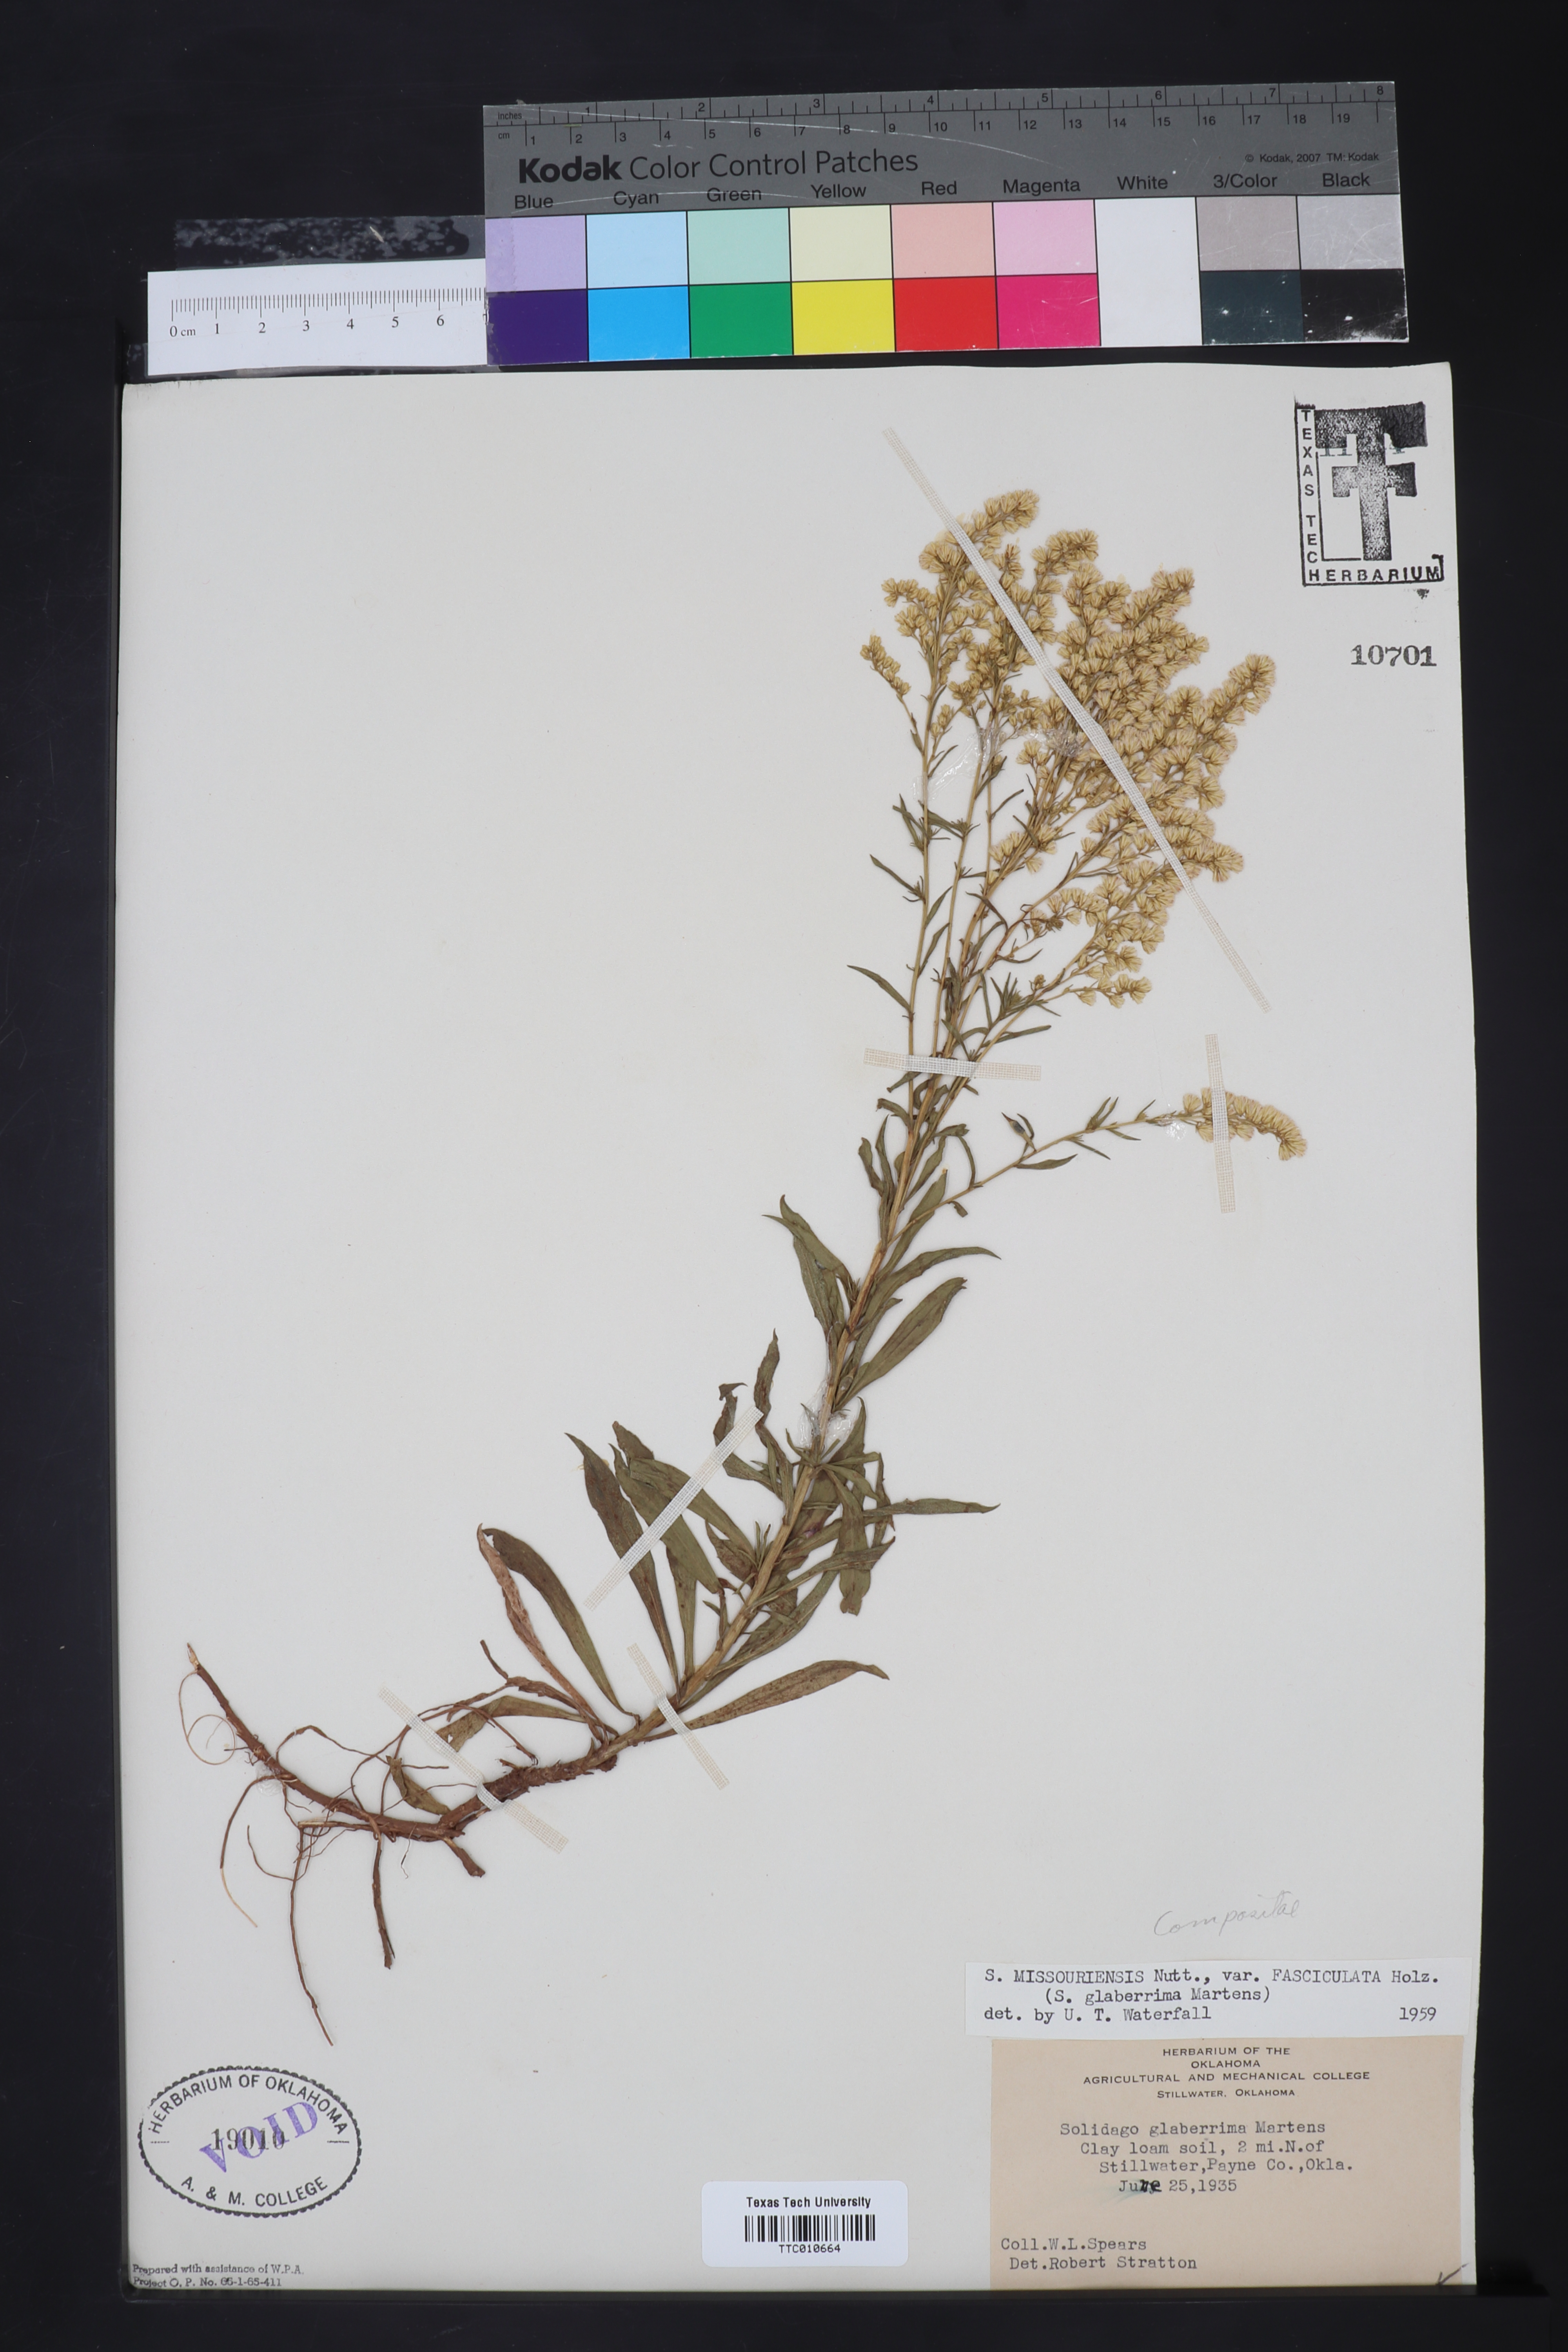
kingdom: Plantae
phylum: Tracheophyta
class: Magnoliopsida
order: Asterales
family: Asteraceae
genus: Solidago
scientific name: Solidago missouriensis
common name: Prairie goldenrod
